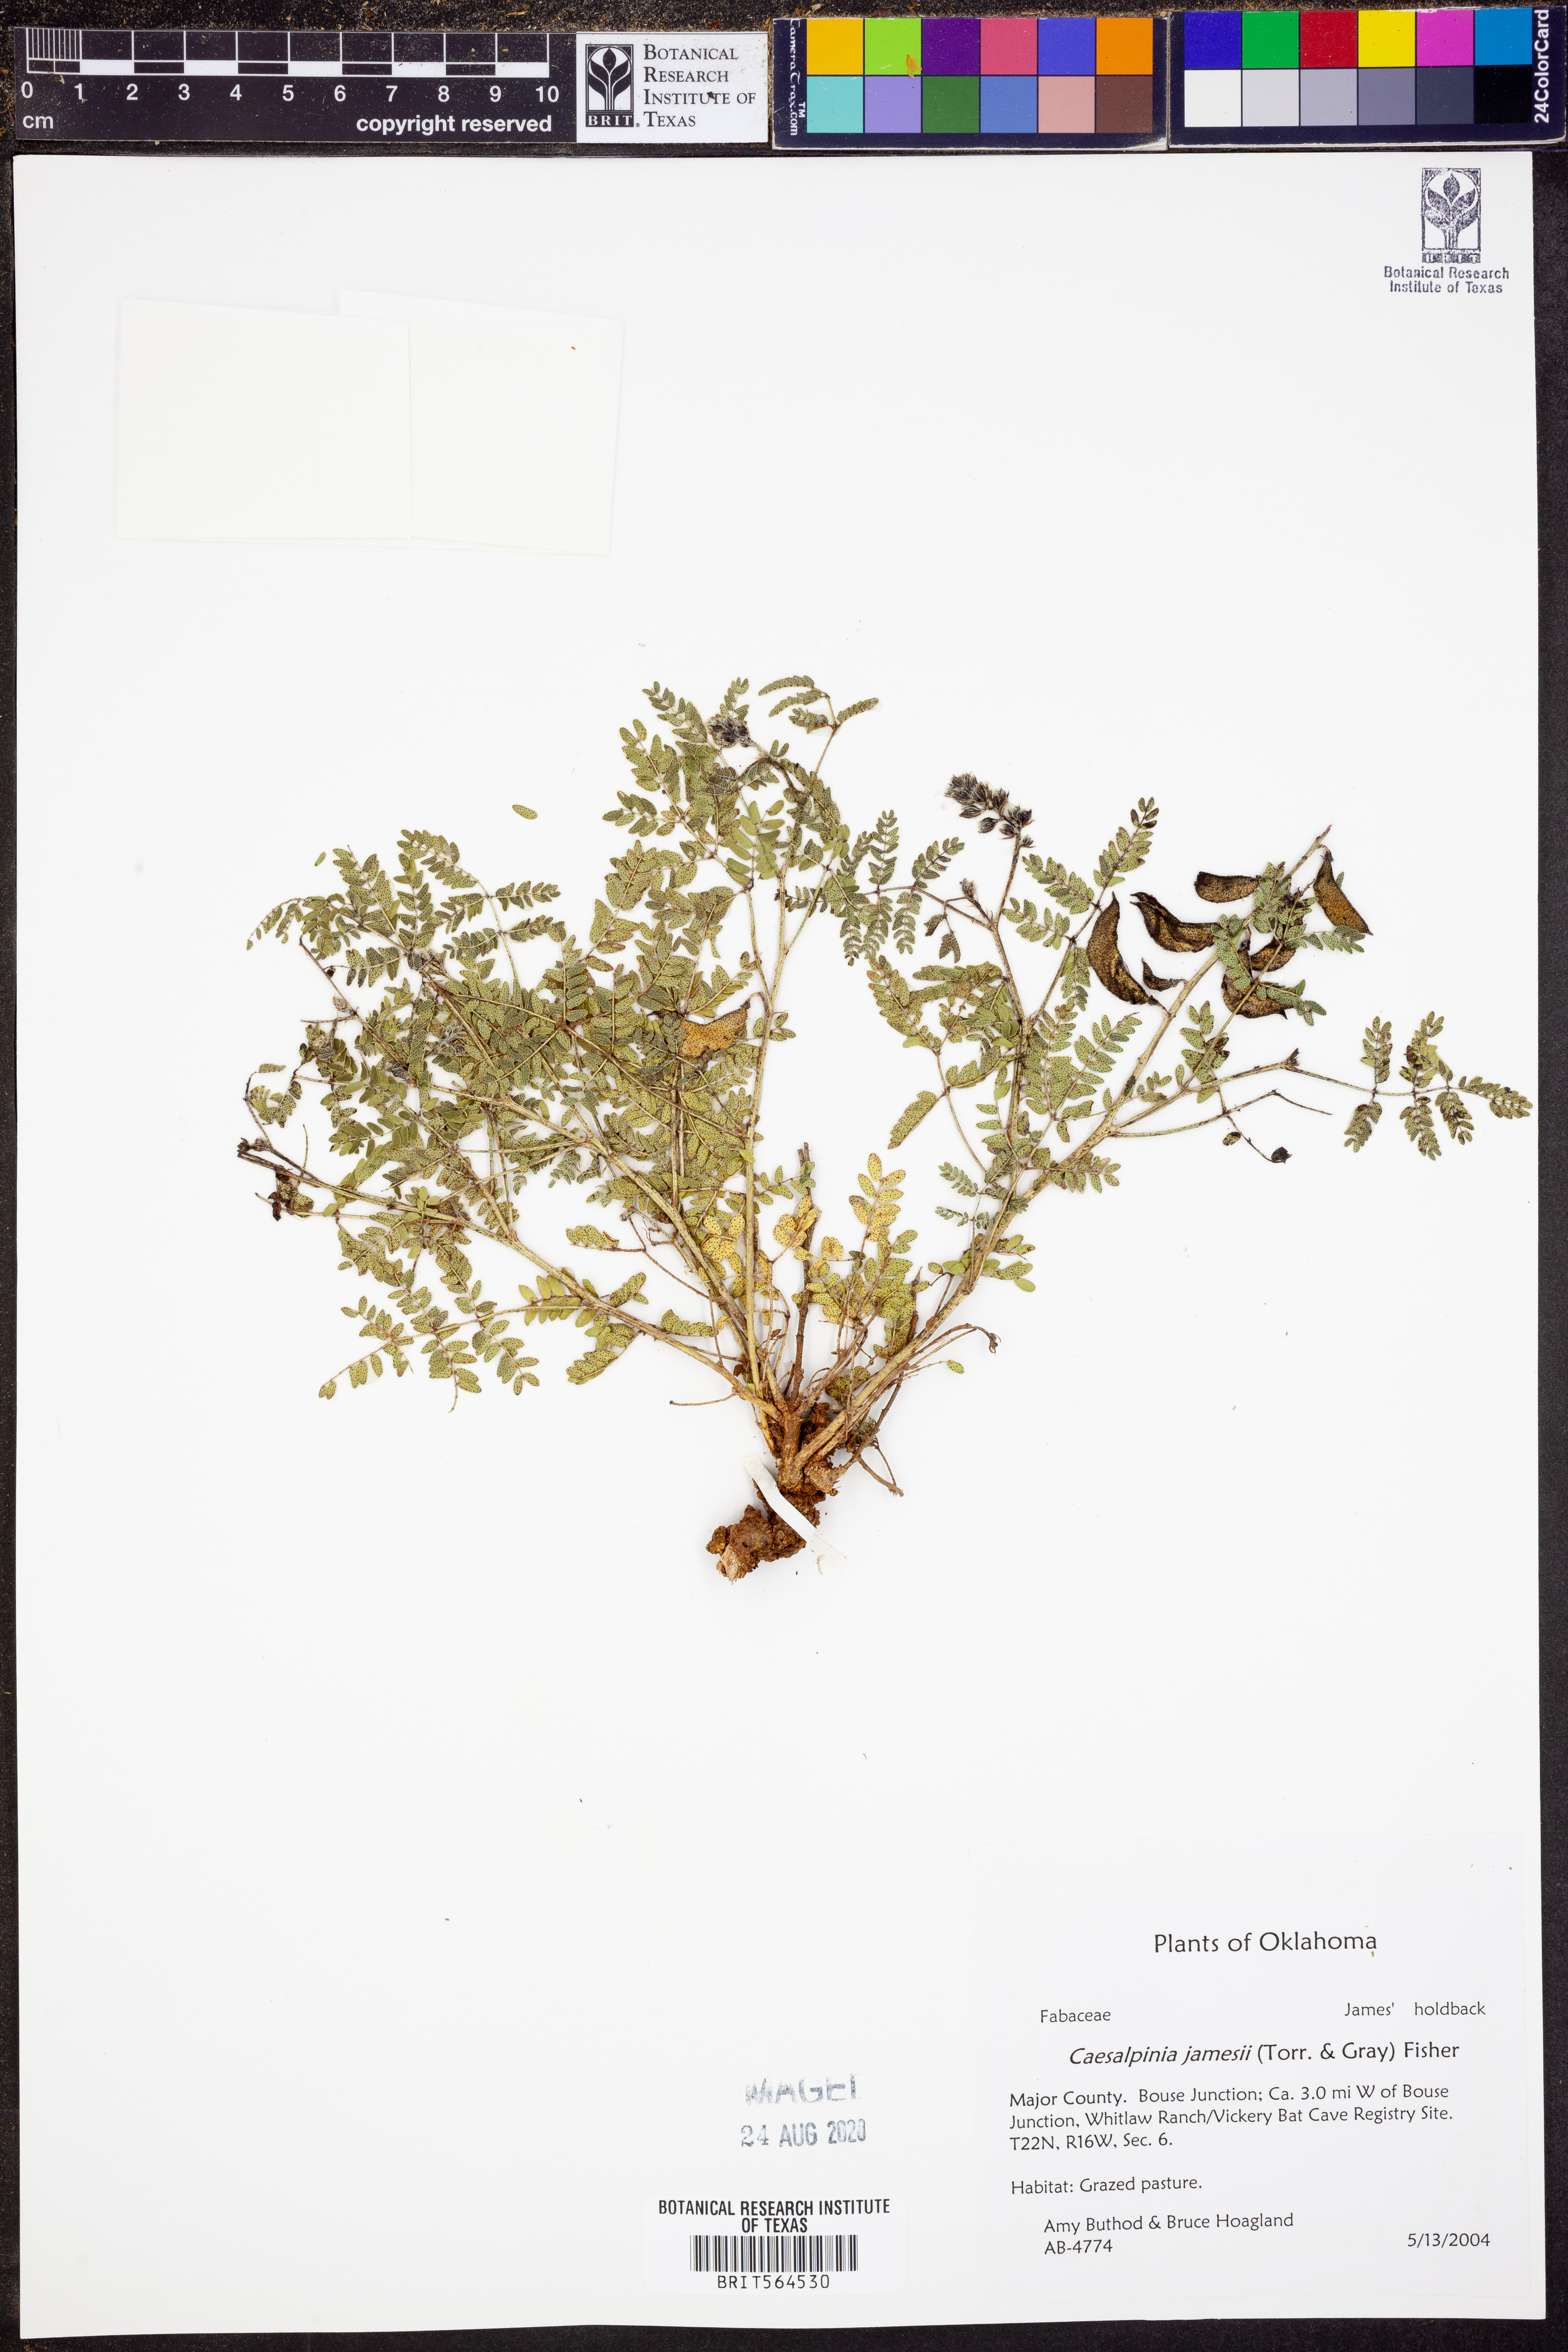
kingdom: Plantae
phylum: Tracheophyta
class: Magnoliopsida
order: Fabales
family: Fabaceae
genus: Pomaria
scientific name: Pomaria jamesii
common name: James' caesalpinia
